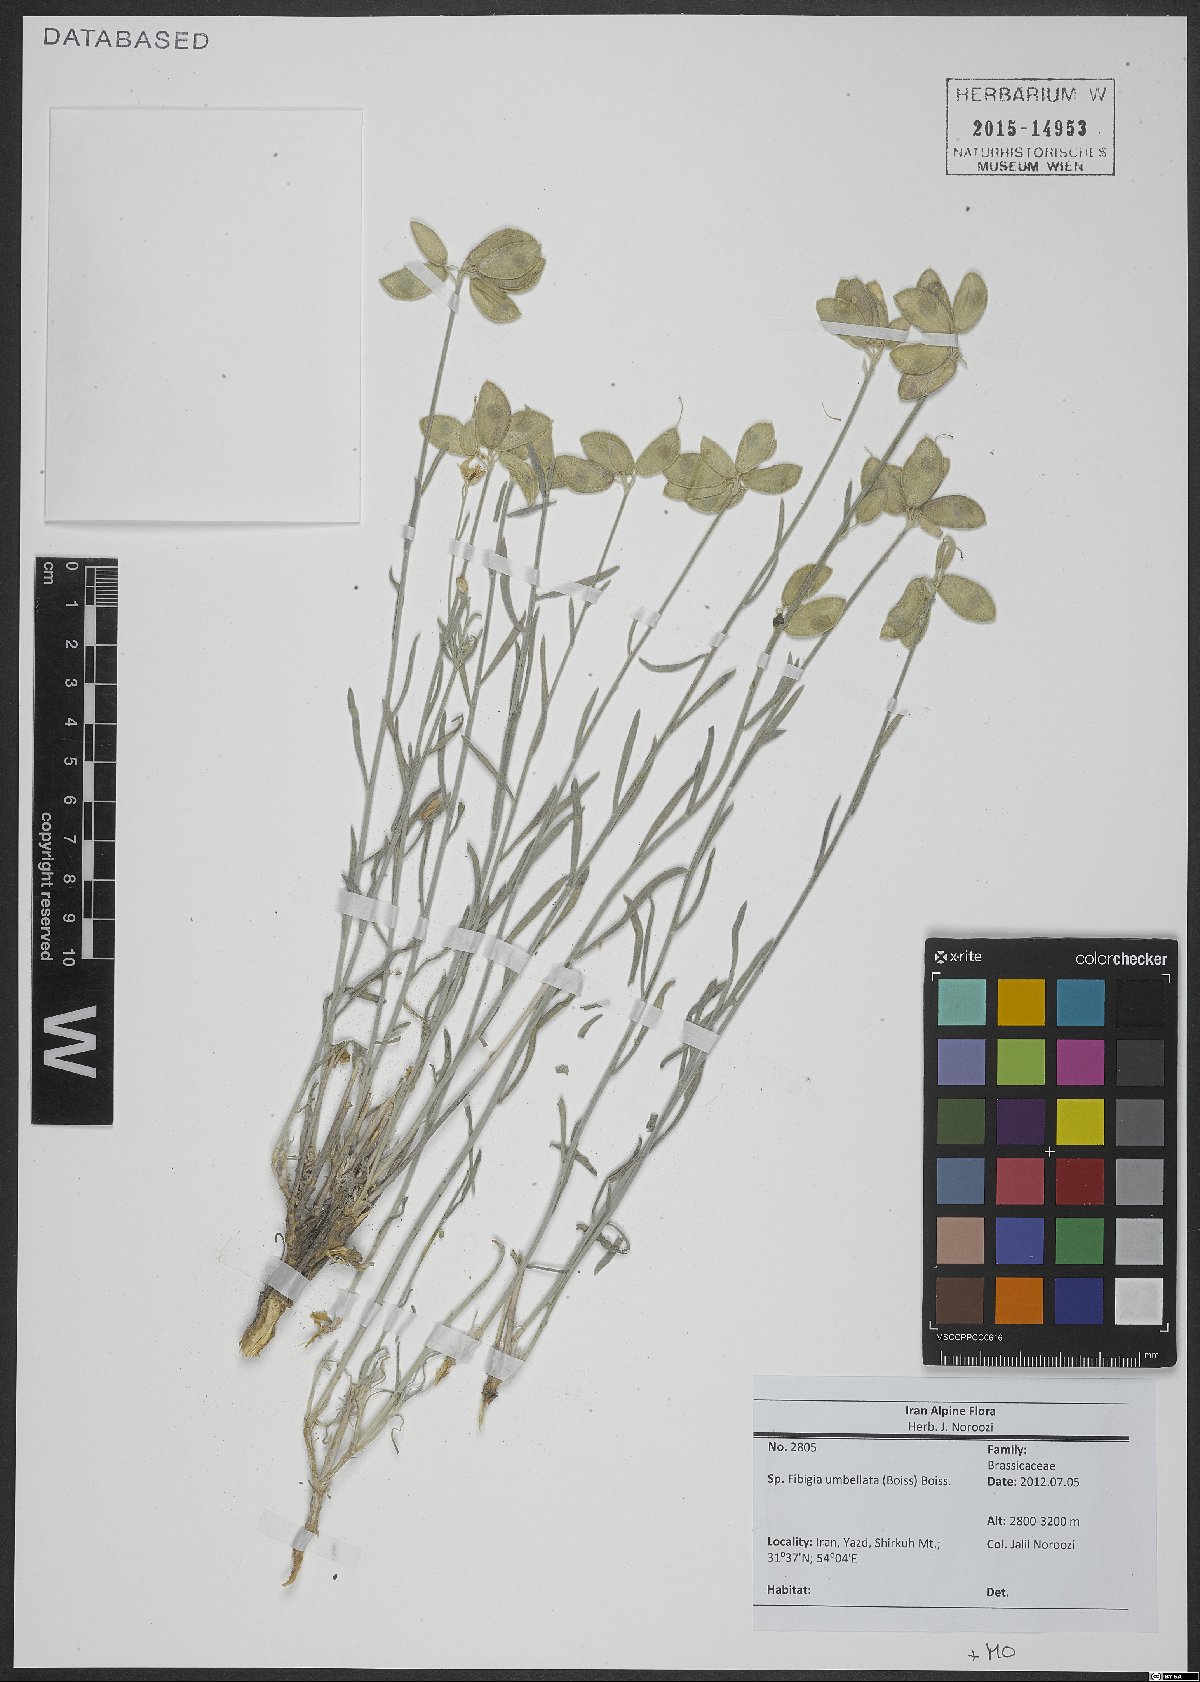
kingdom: Plantae
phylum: Tracheophyta
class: Magnoliopsida
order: Brassicales
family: Brassicaceae
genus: Irania
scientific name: Irania umbellata
